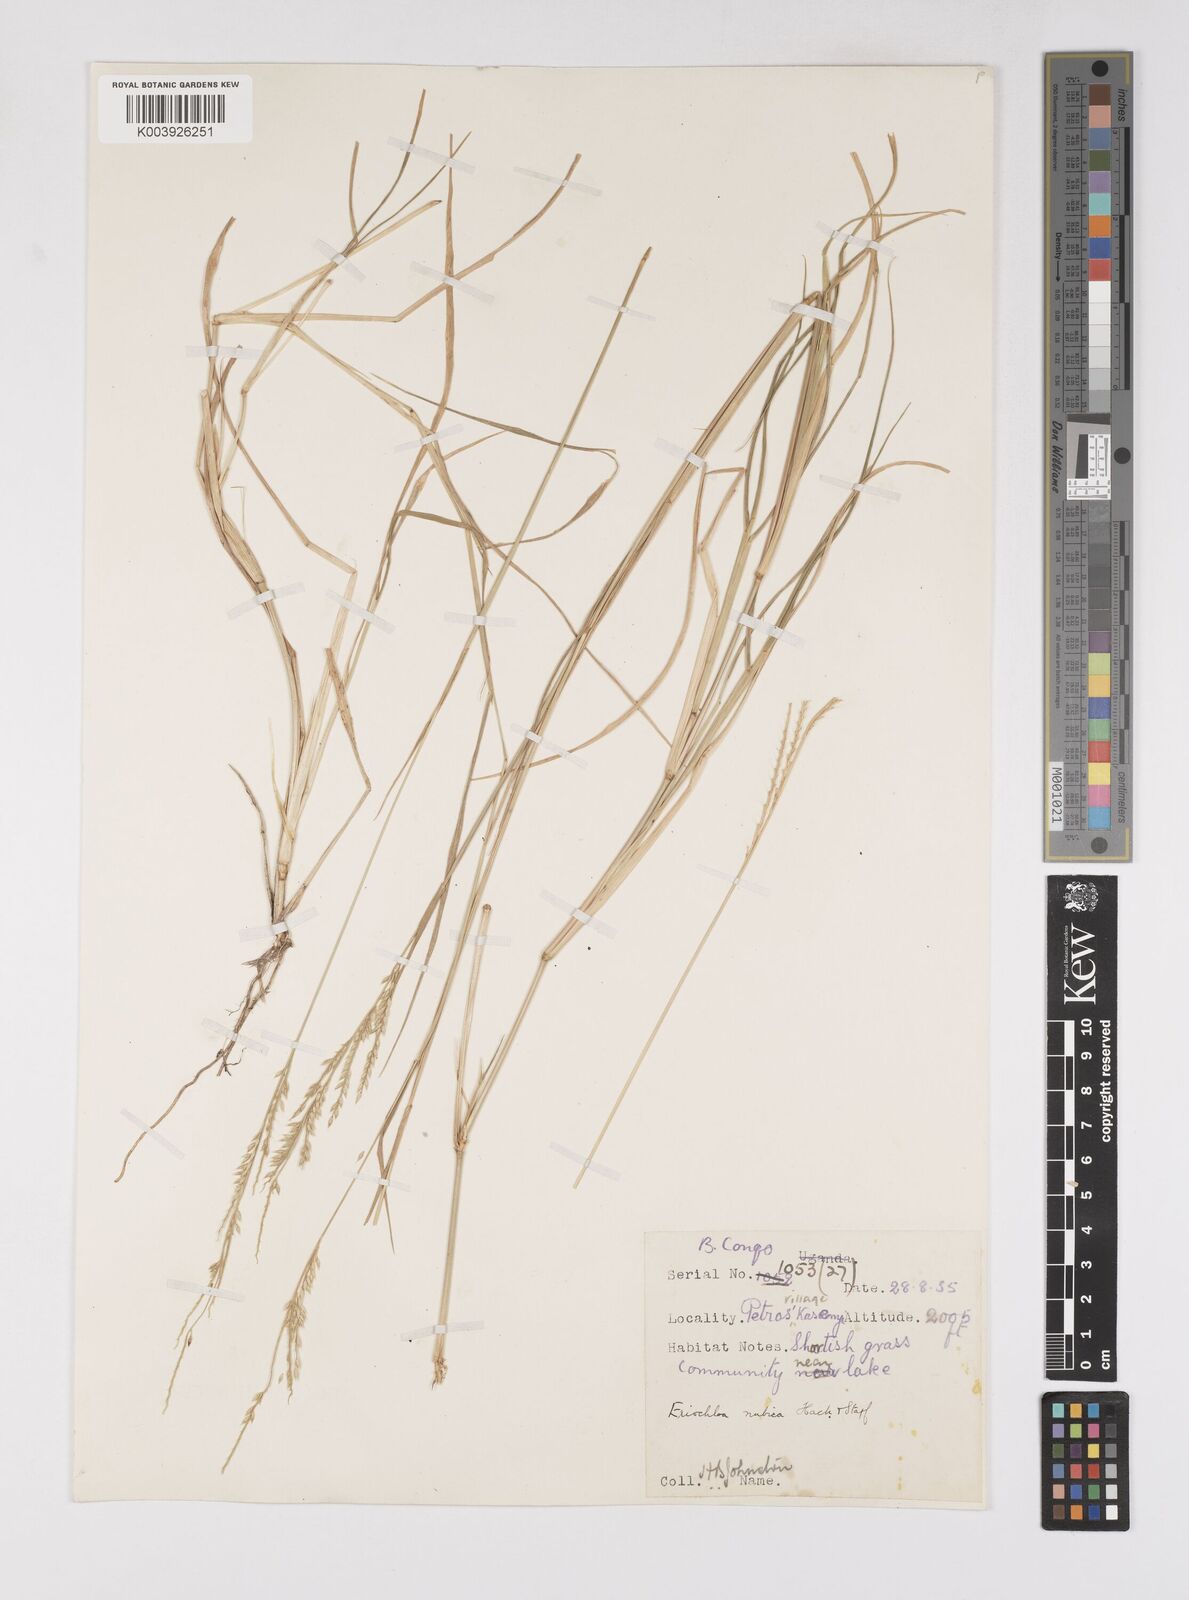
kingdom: Plantae
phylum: Tracheophyta
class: Liliopsida
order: Poales
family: Poaceae
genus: Eriochloa
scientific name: Eriochloa barbatus
